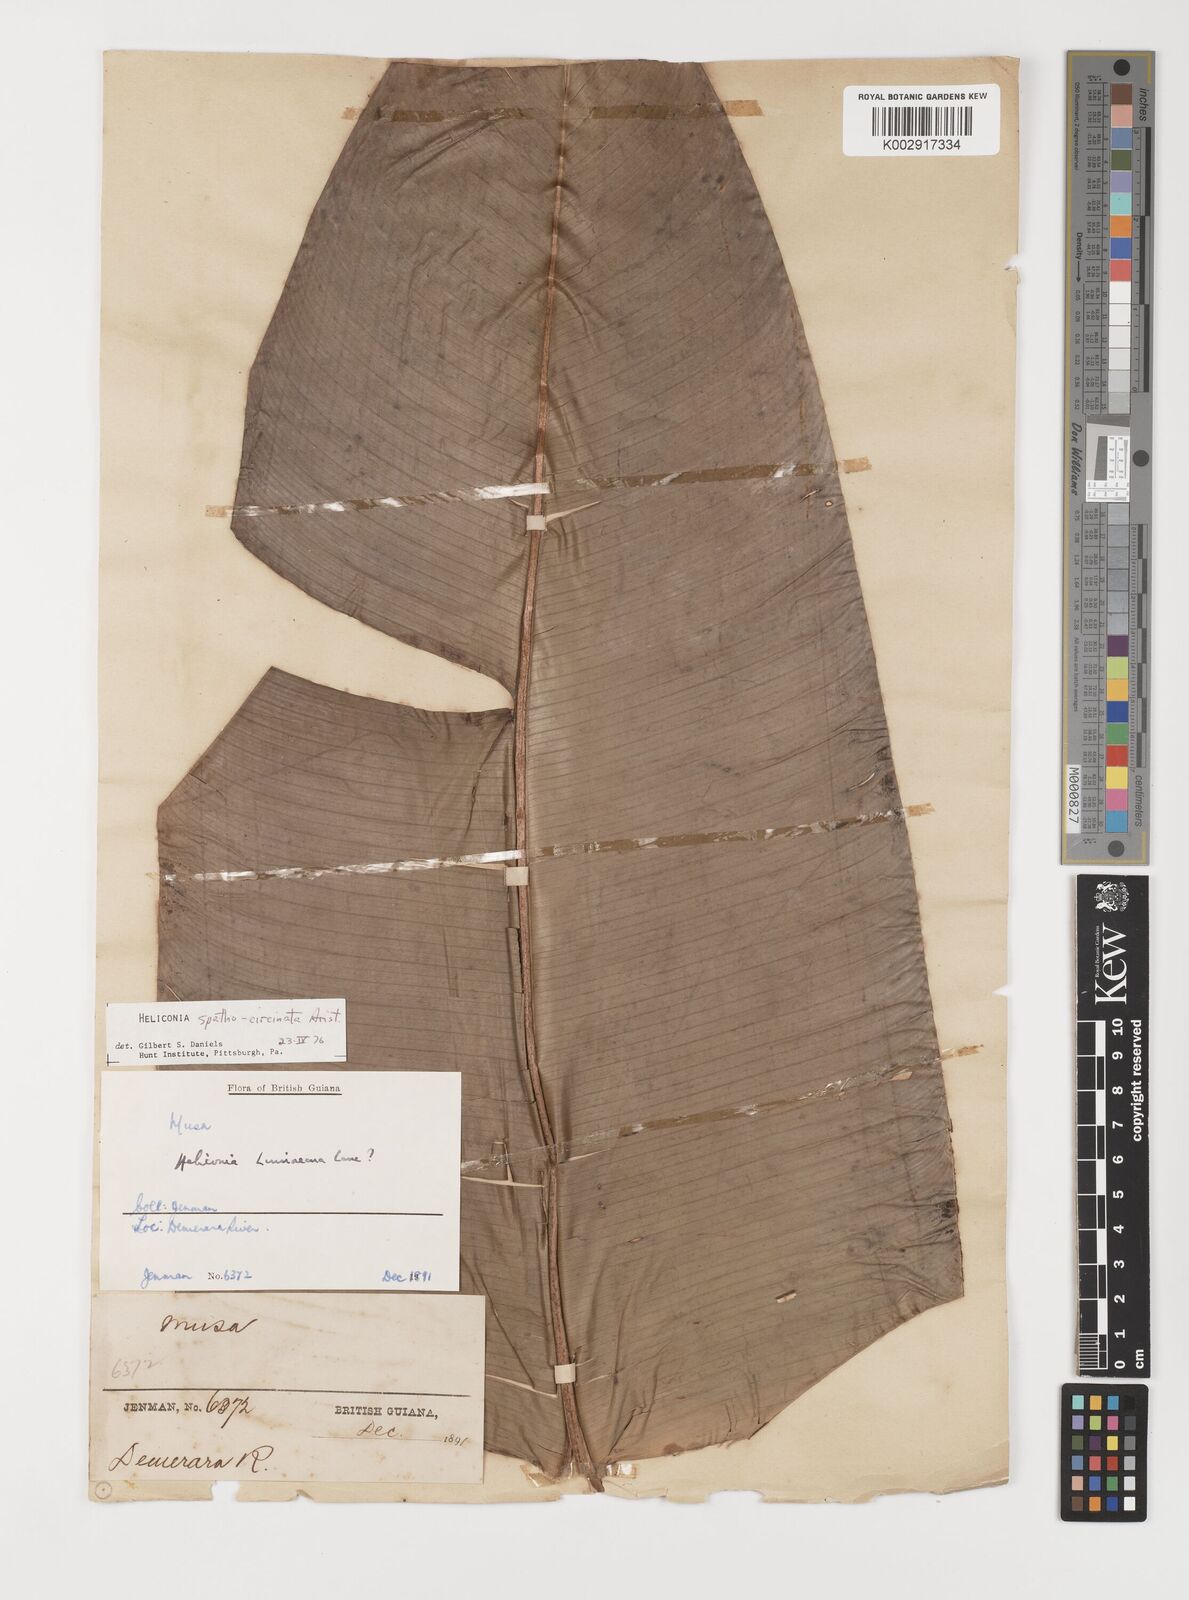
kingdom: Plantae
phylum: Tracheophyta
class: Liliopsida
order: Zingiberales
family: Heliconiaceae
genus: Heliconia
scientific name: Heliconia spathocircinata
